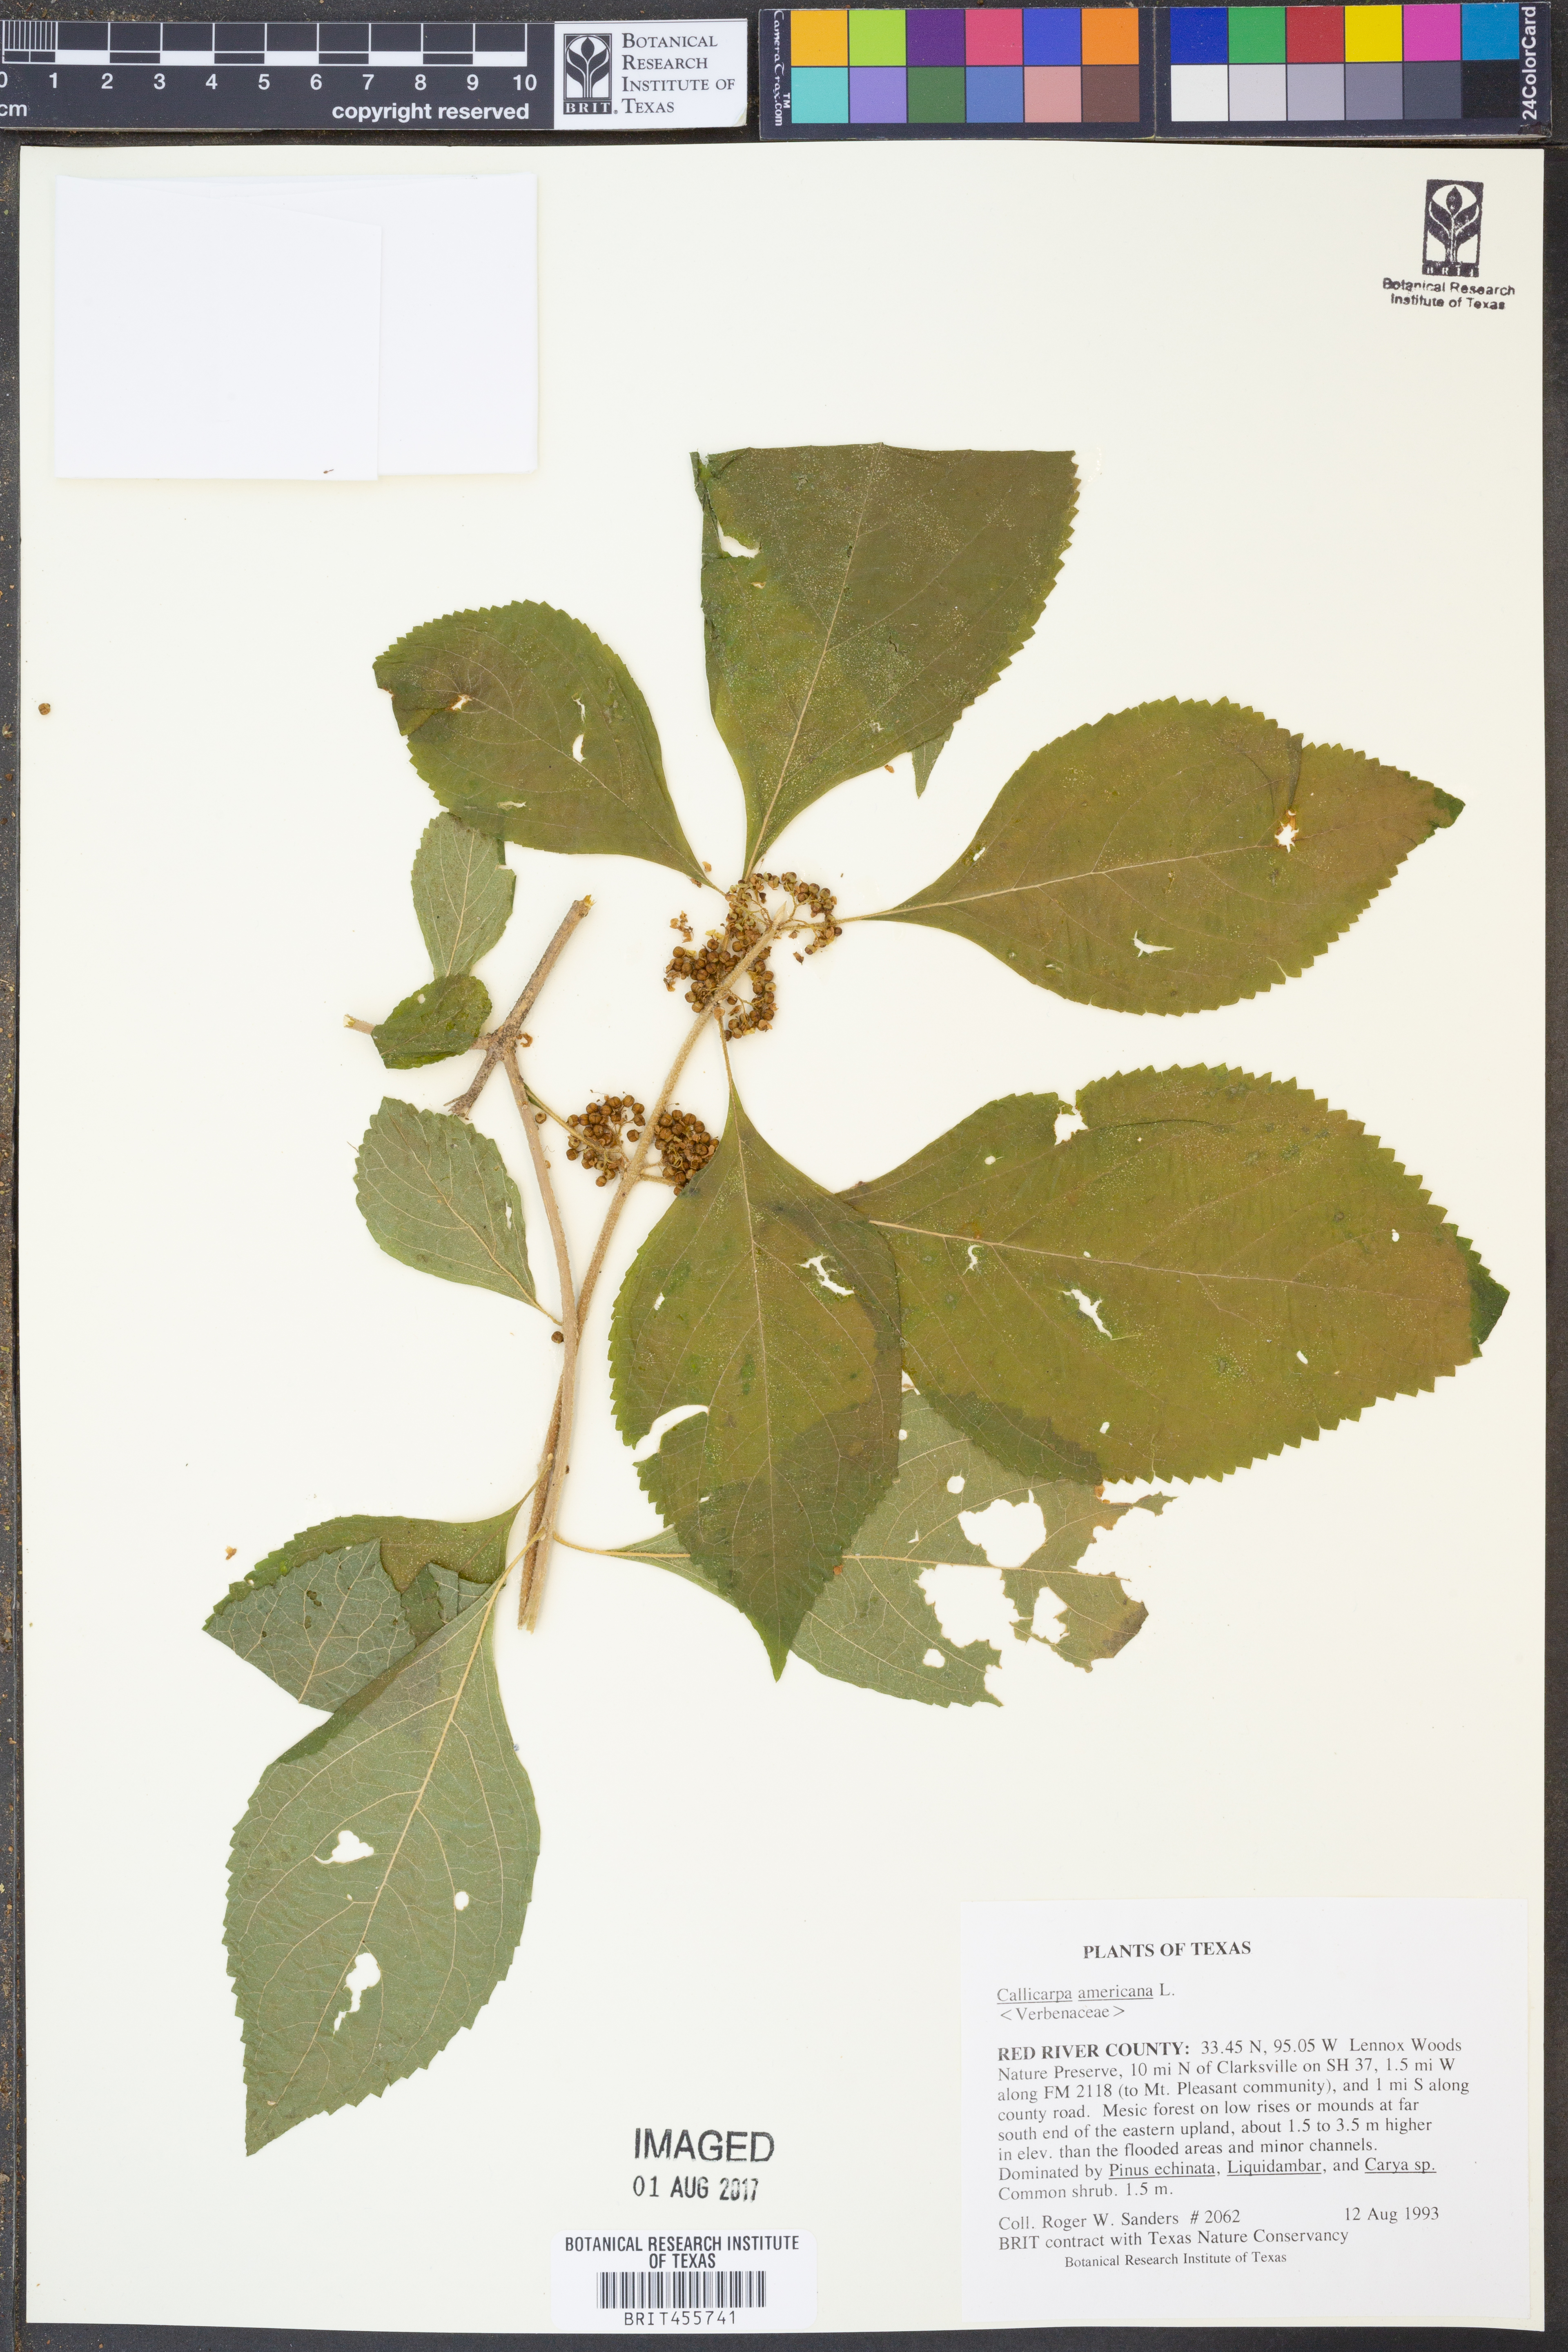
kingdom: Plantae
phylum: Tracheophyta
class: Magnoliopsida
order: Lamiales
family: Lamiaceae
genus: Callicarpa
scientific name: Callicarpa americana
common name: American beautyberry
